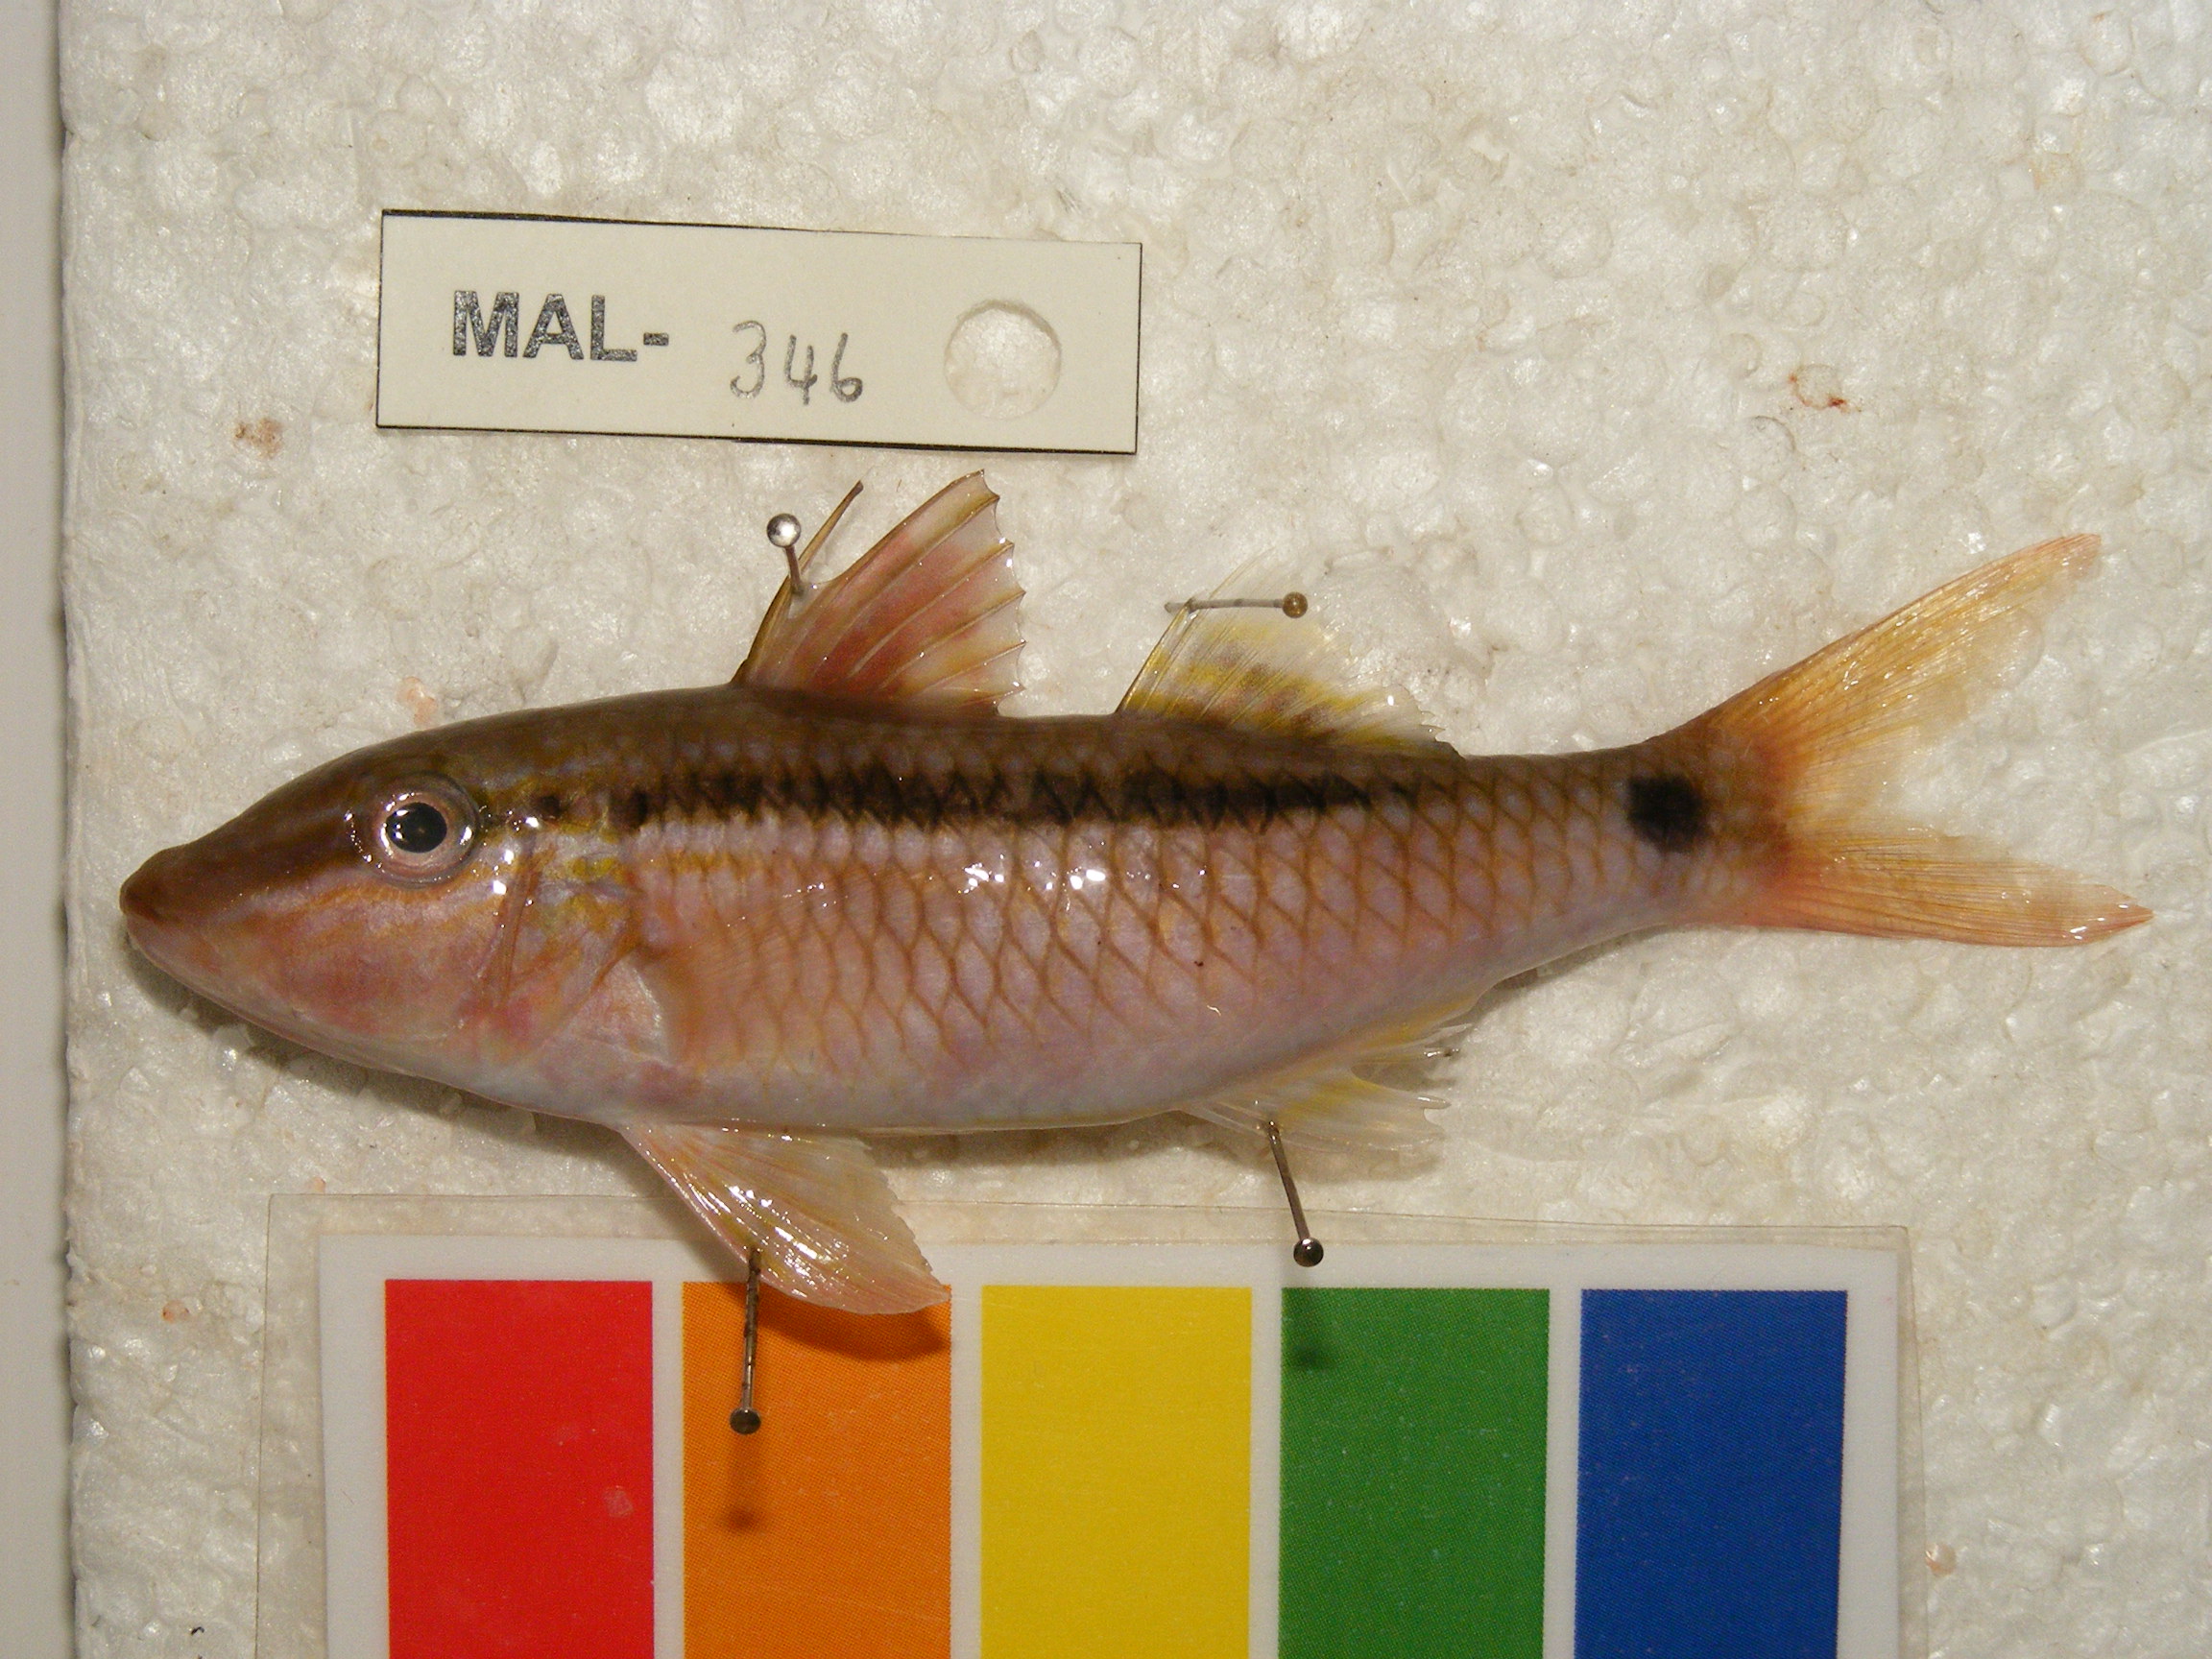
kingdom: Animalia
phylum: Chordata
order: Perciformes
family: Mullidae
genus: Parupeneus
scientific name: Parupeneus barberinus
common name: Dash-and-dot goatfish
